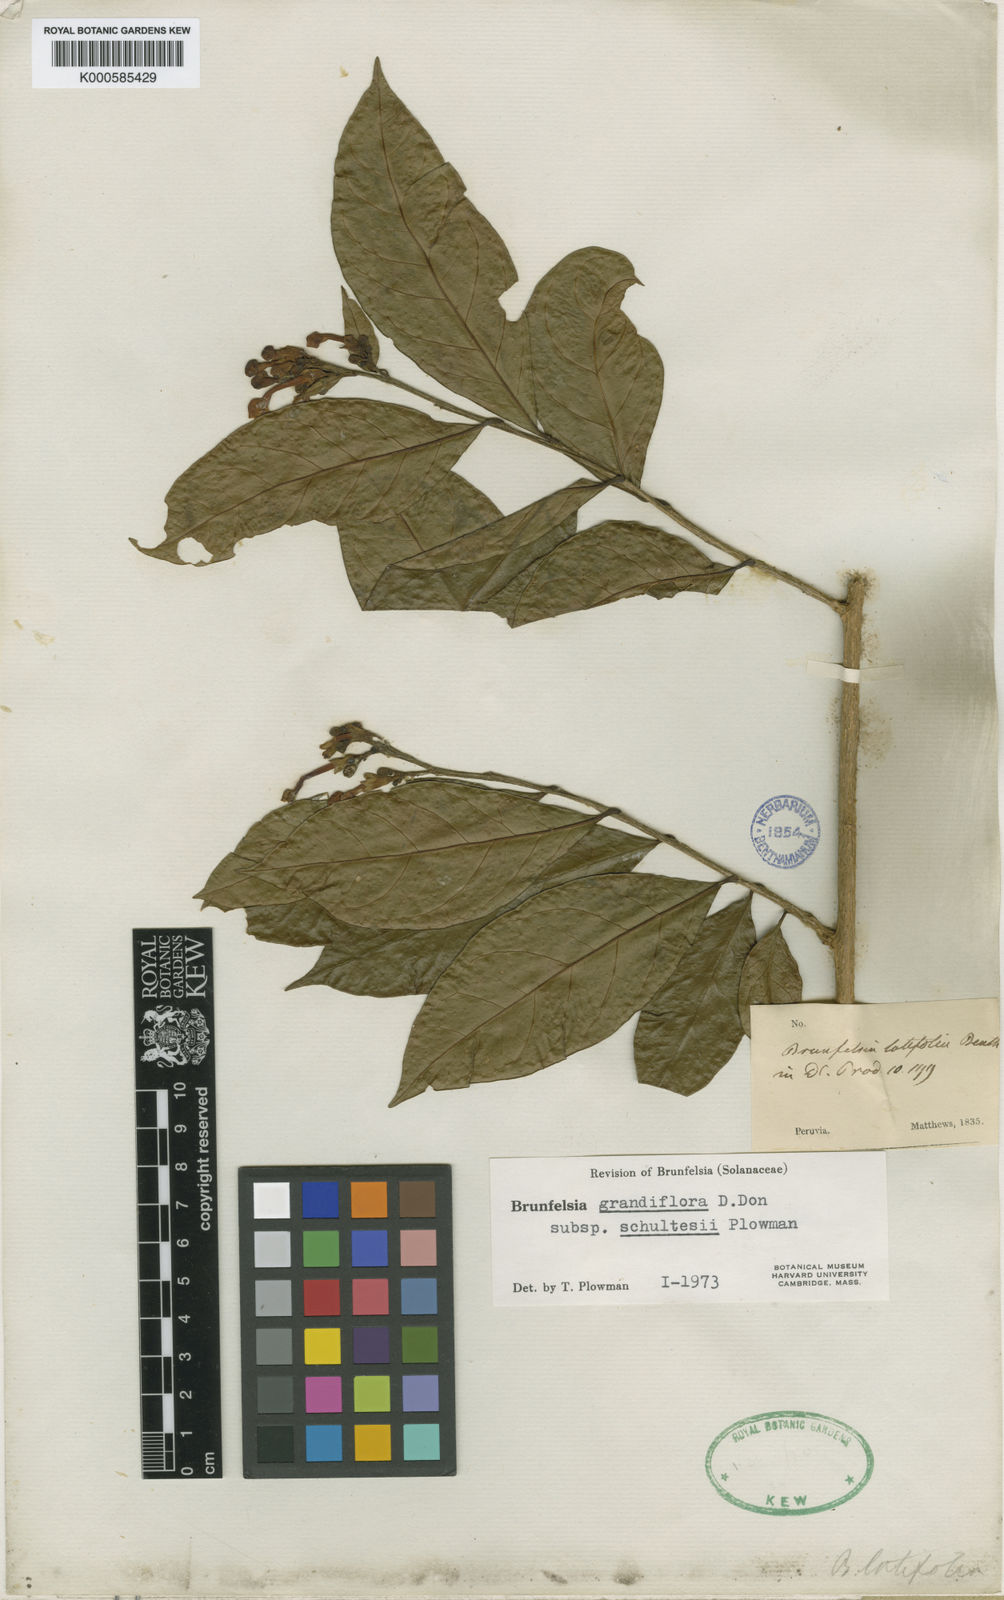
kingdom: Plantae
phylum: Tracheophyta
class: Magnoliopsida
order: Solanales
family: Solanaceae
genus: Brunfelsia
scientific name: Brunfelsia grandiflora
